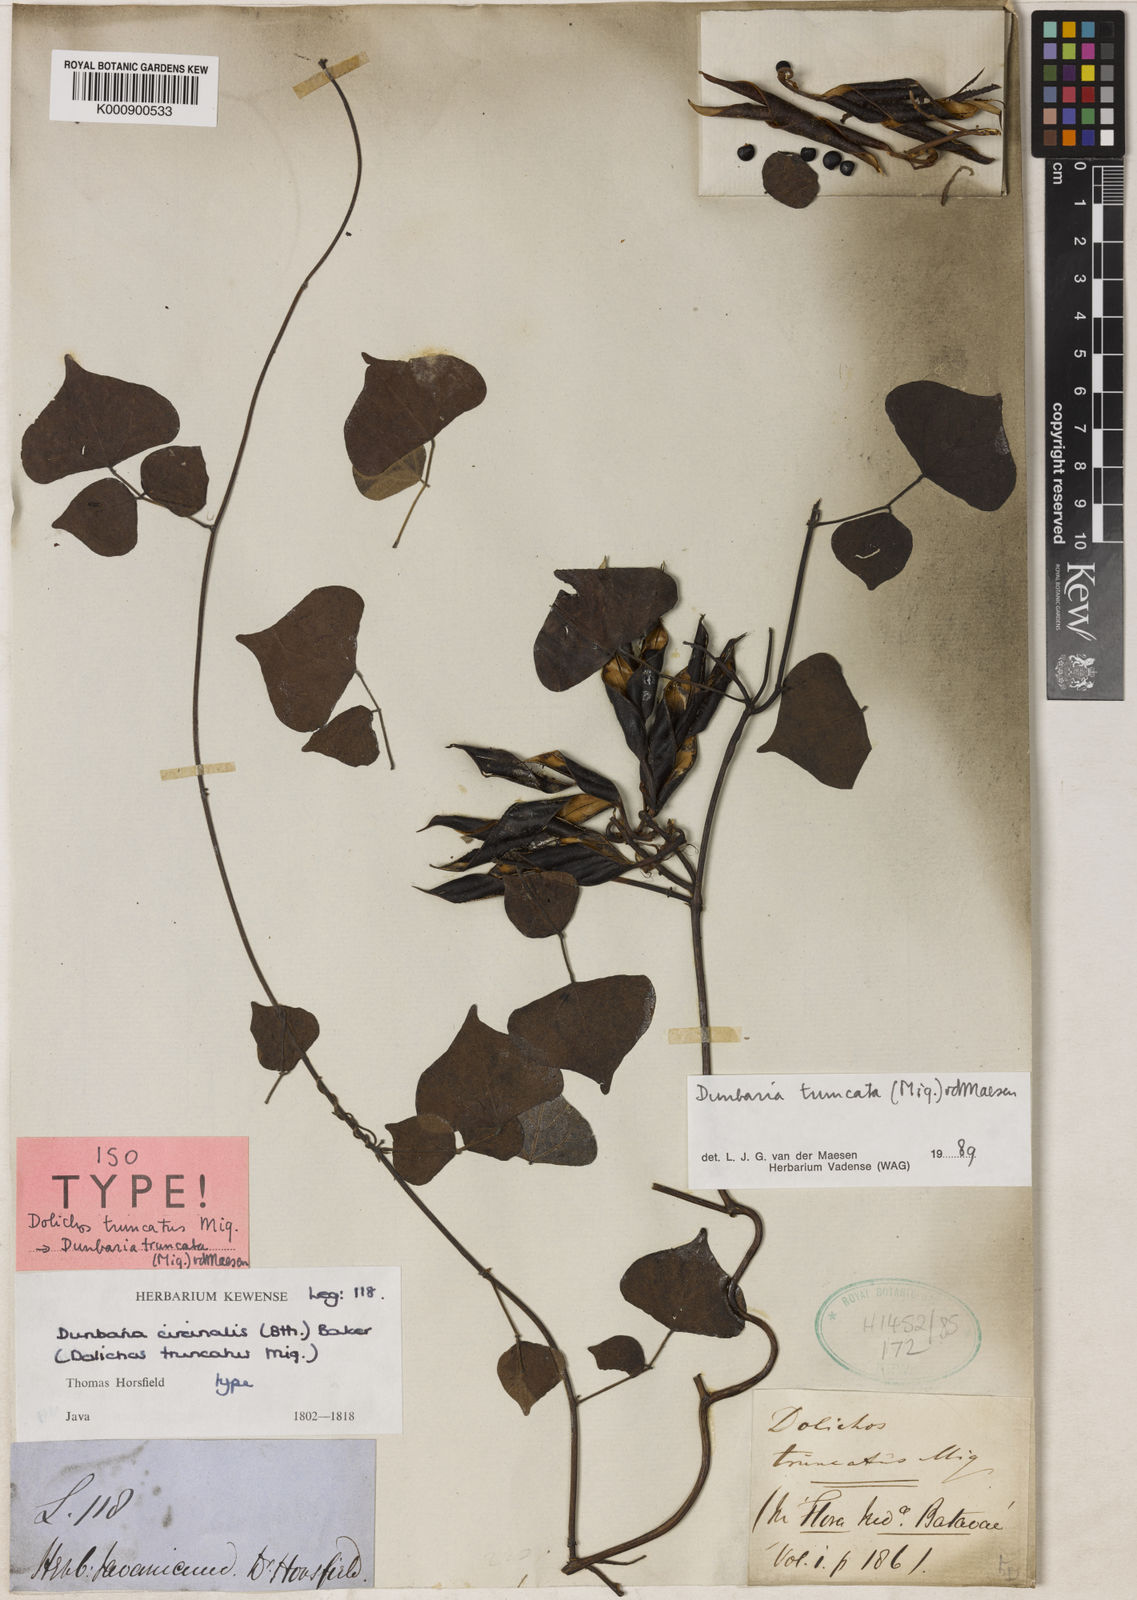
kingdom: Plantae
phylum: Tracheophyta
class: Magnoliopsida
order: Fabales
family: Fabaceae
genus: Dunbaria
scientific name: Dunbaria truncata
